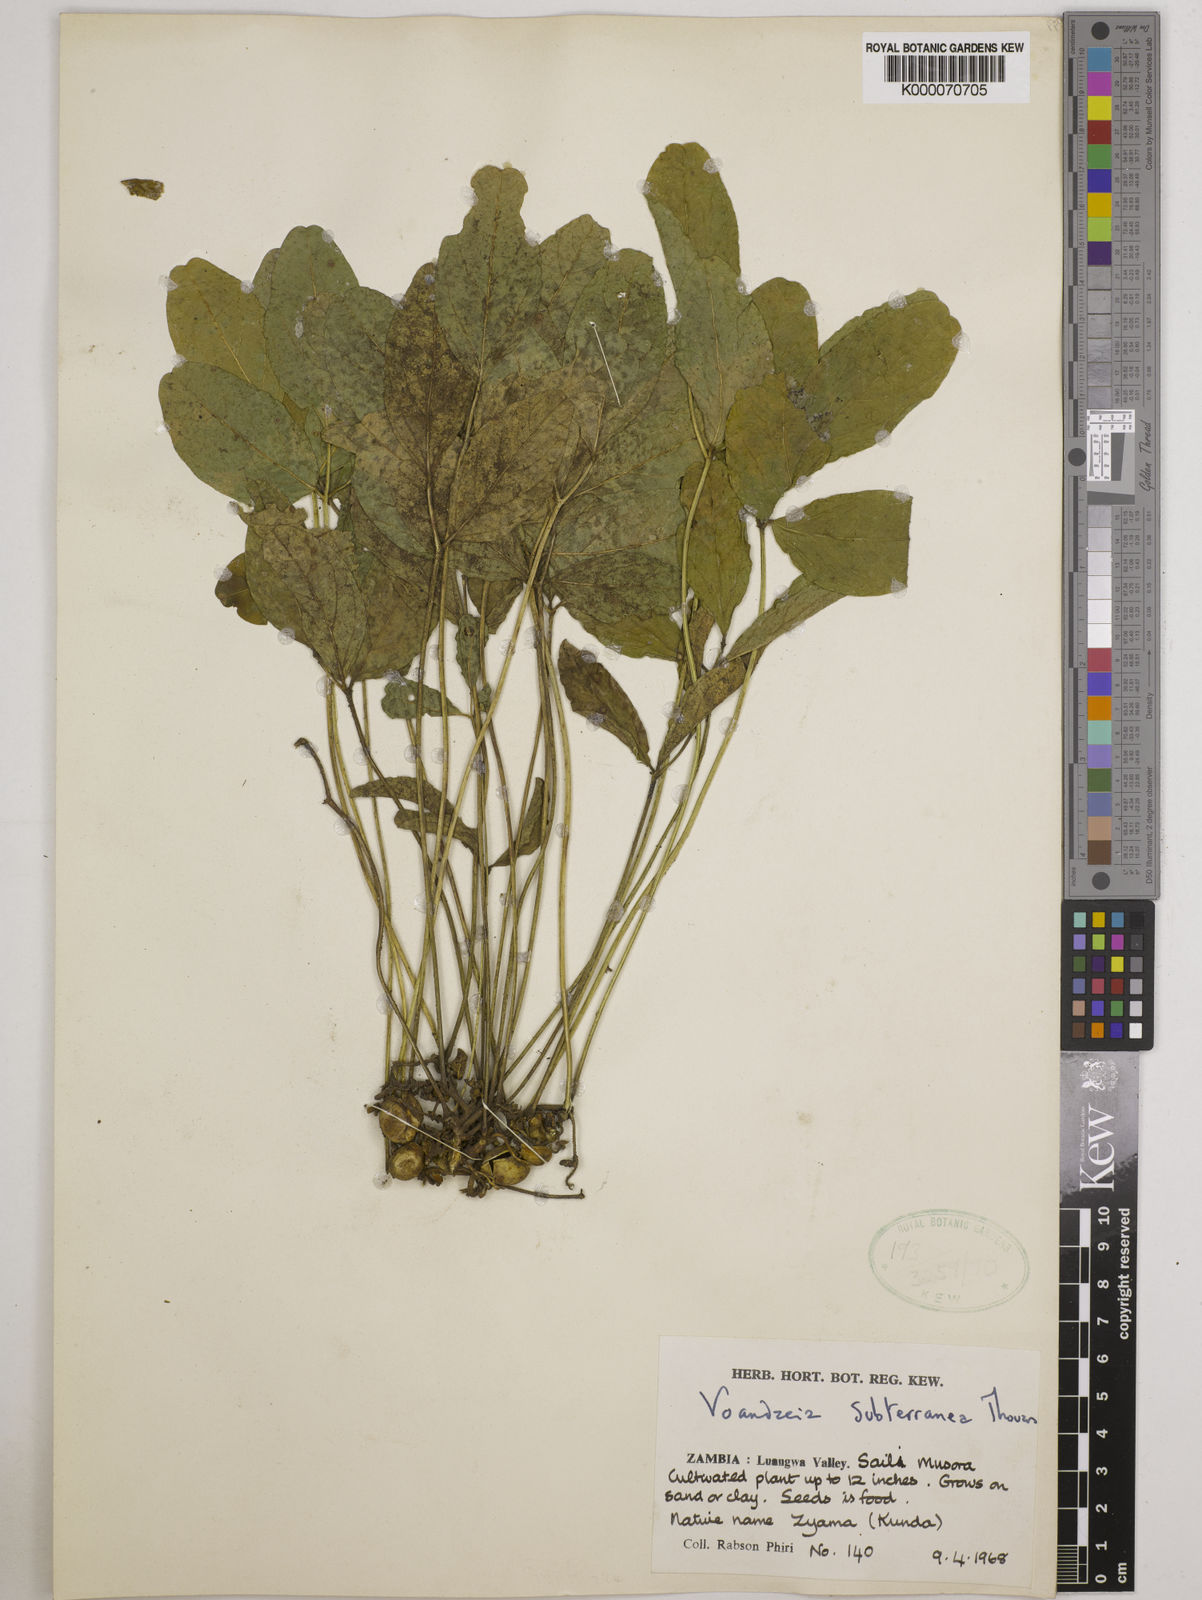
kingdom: Plantae
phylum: Tracheophyta
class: Magnoliopsida
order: Fabales
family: Fabaceae
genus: Vigna
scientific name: Vigna subterranea
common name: Bambara groundnut
